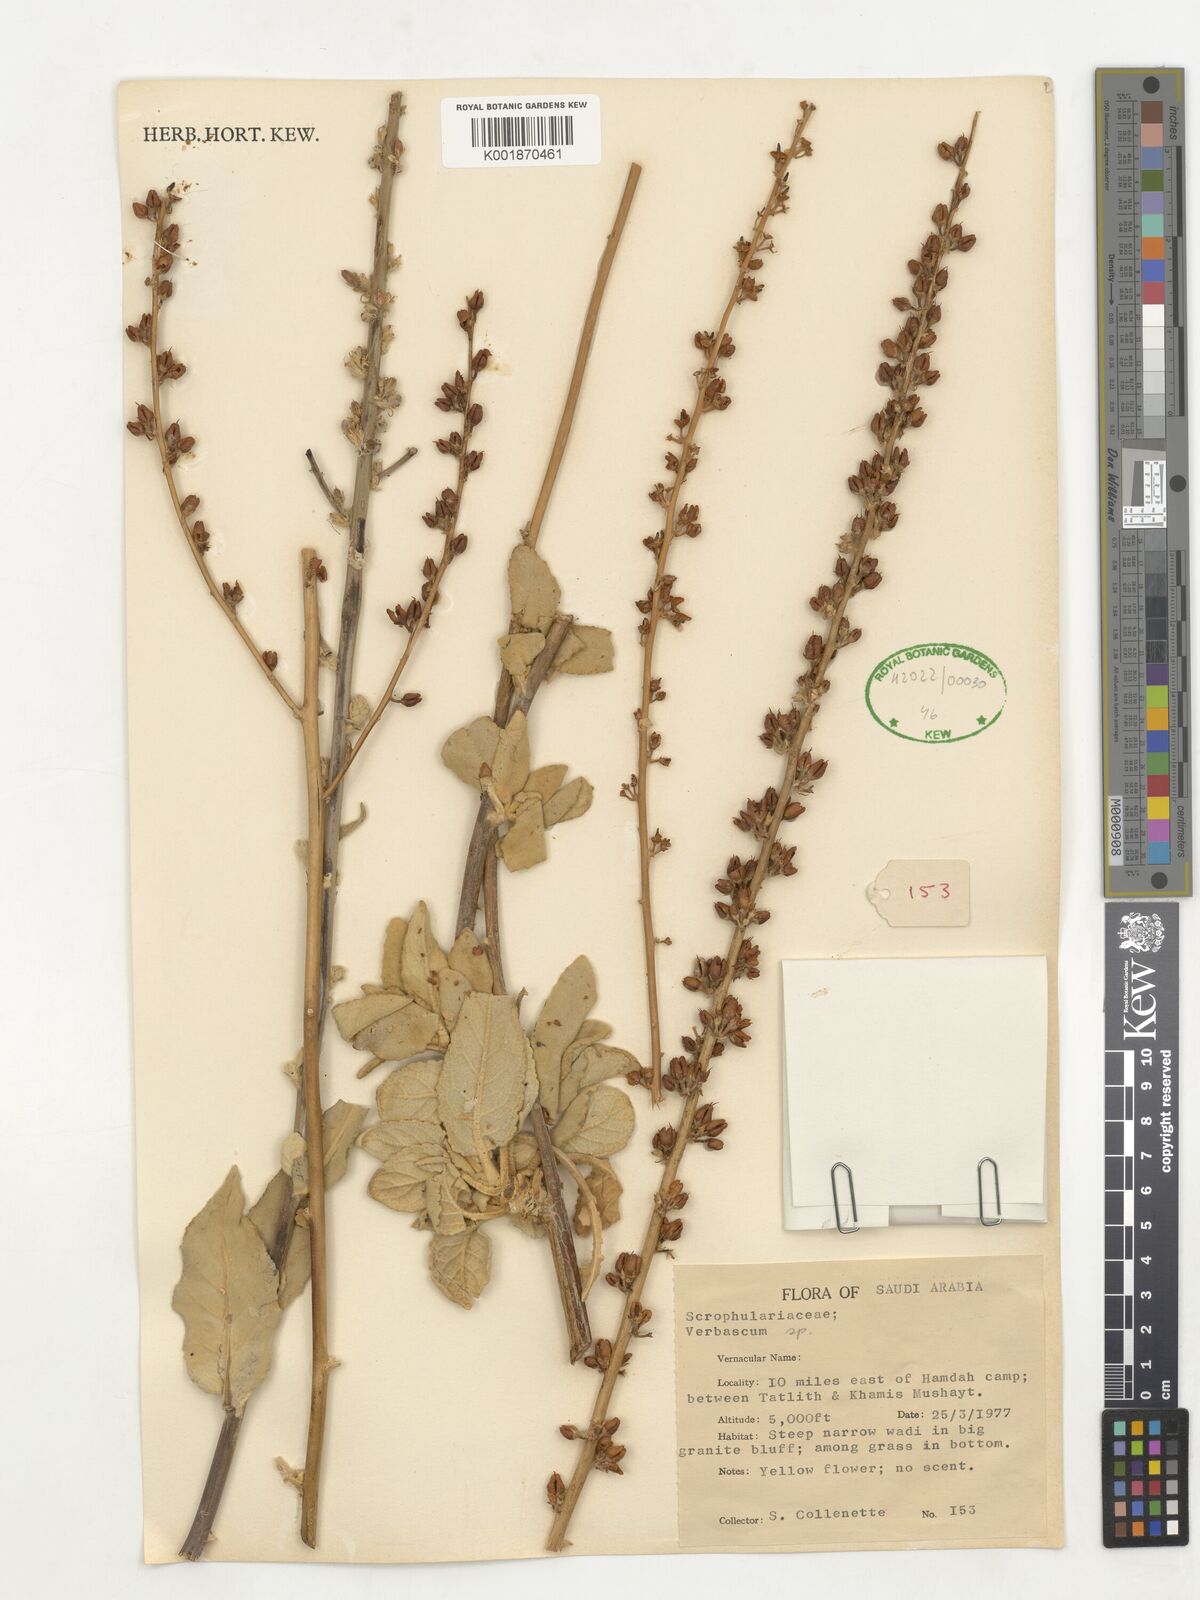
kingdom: Plantae
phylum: Tracheophyta
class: Magnoliopsida
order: Lamiales
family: Scrophulariaceae
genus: Verbascum
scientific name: Verbascum
